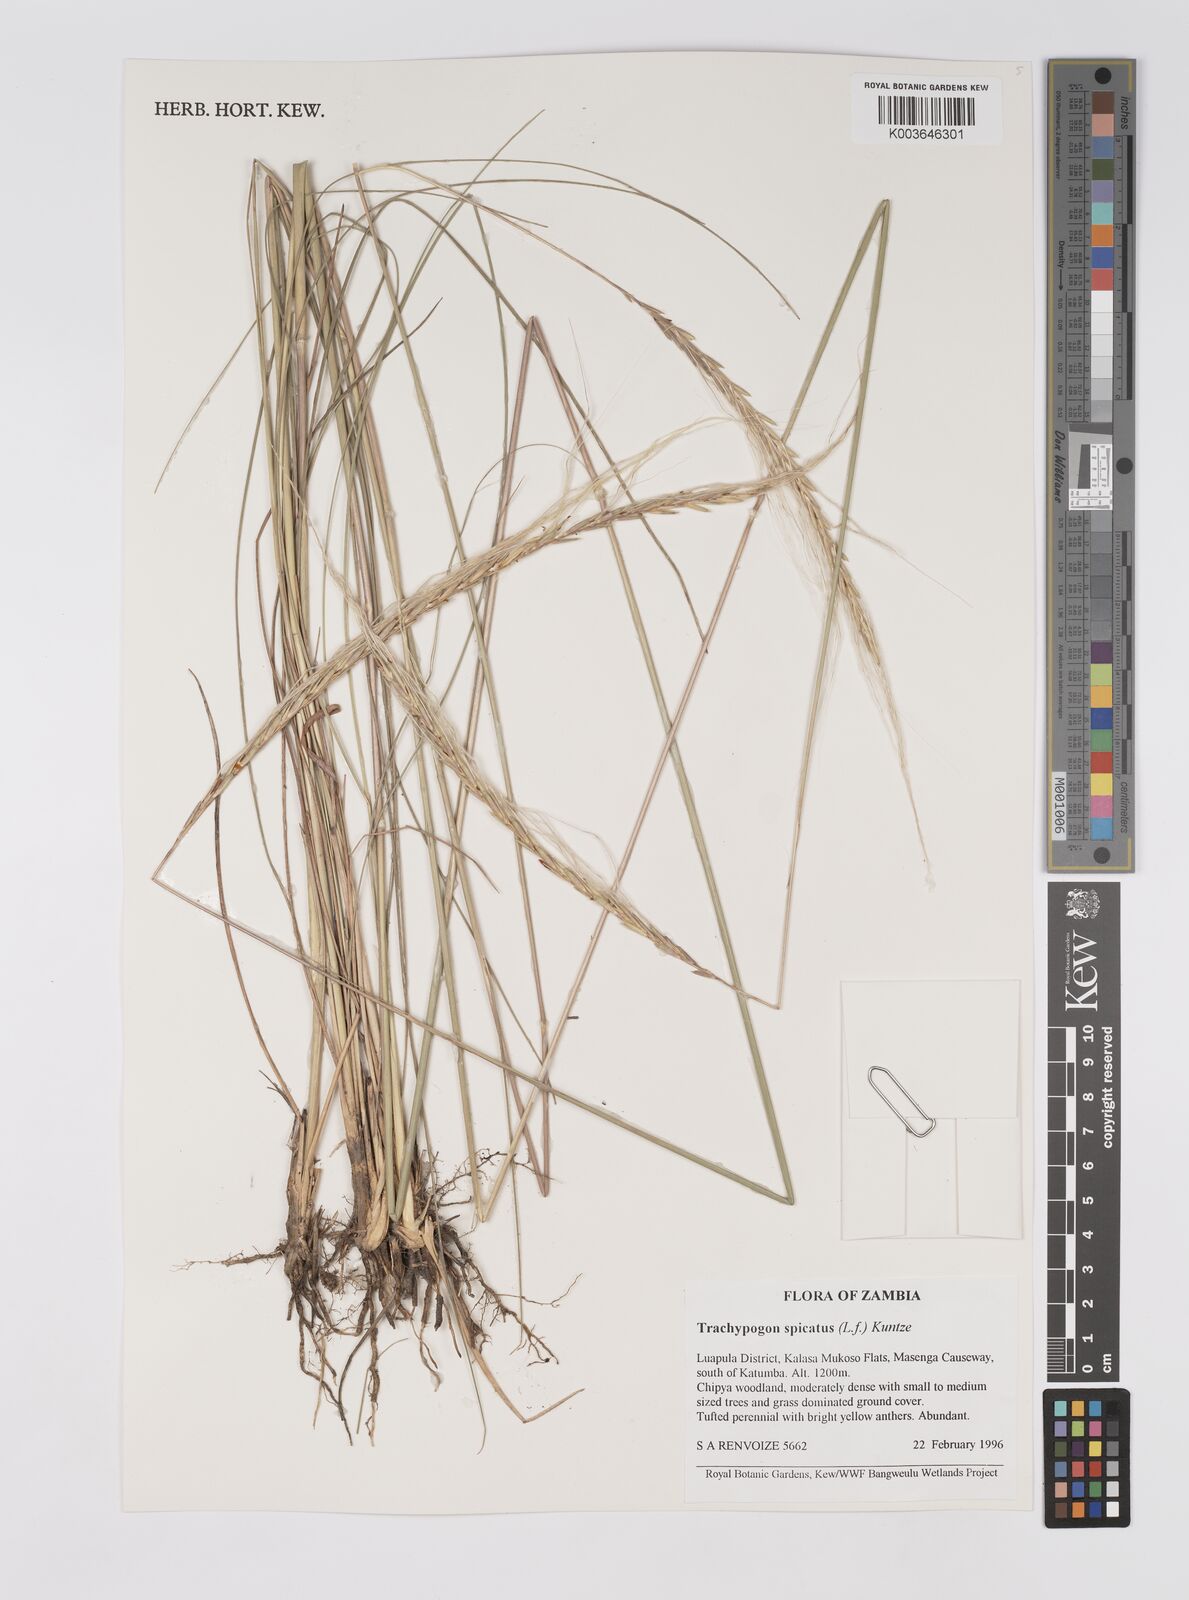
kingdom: Plantae
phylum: Tracheophyta
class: Liliopsida
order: Poales
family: Poaceae
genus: Trachypogon
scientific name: Trachypogon spicatus
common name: Crinkle-awn
